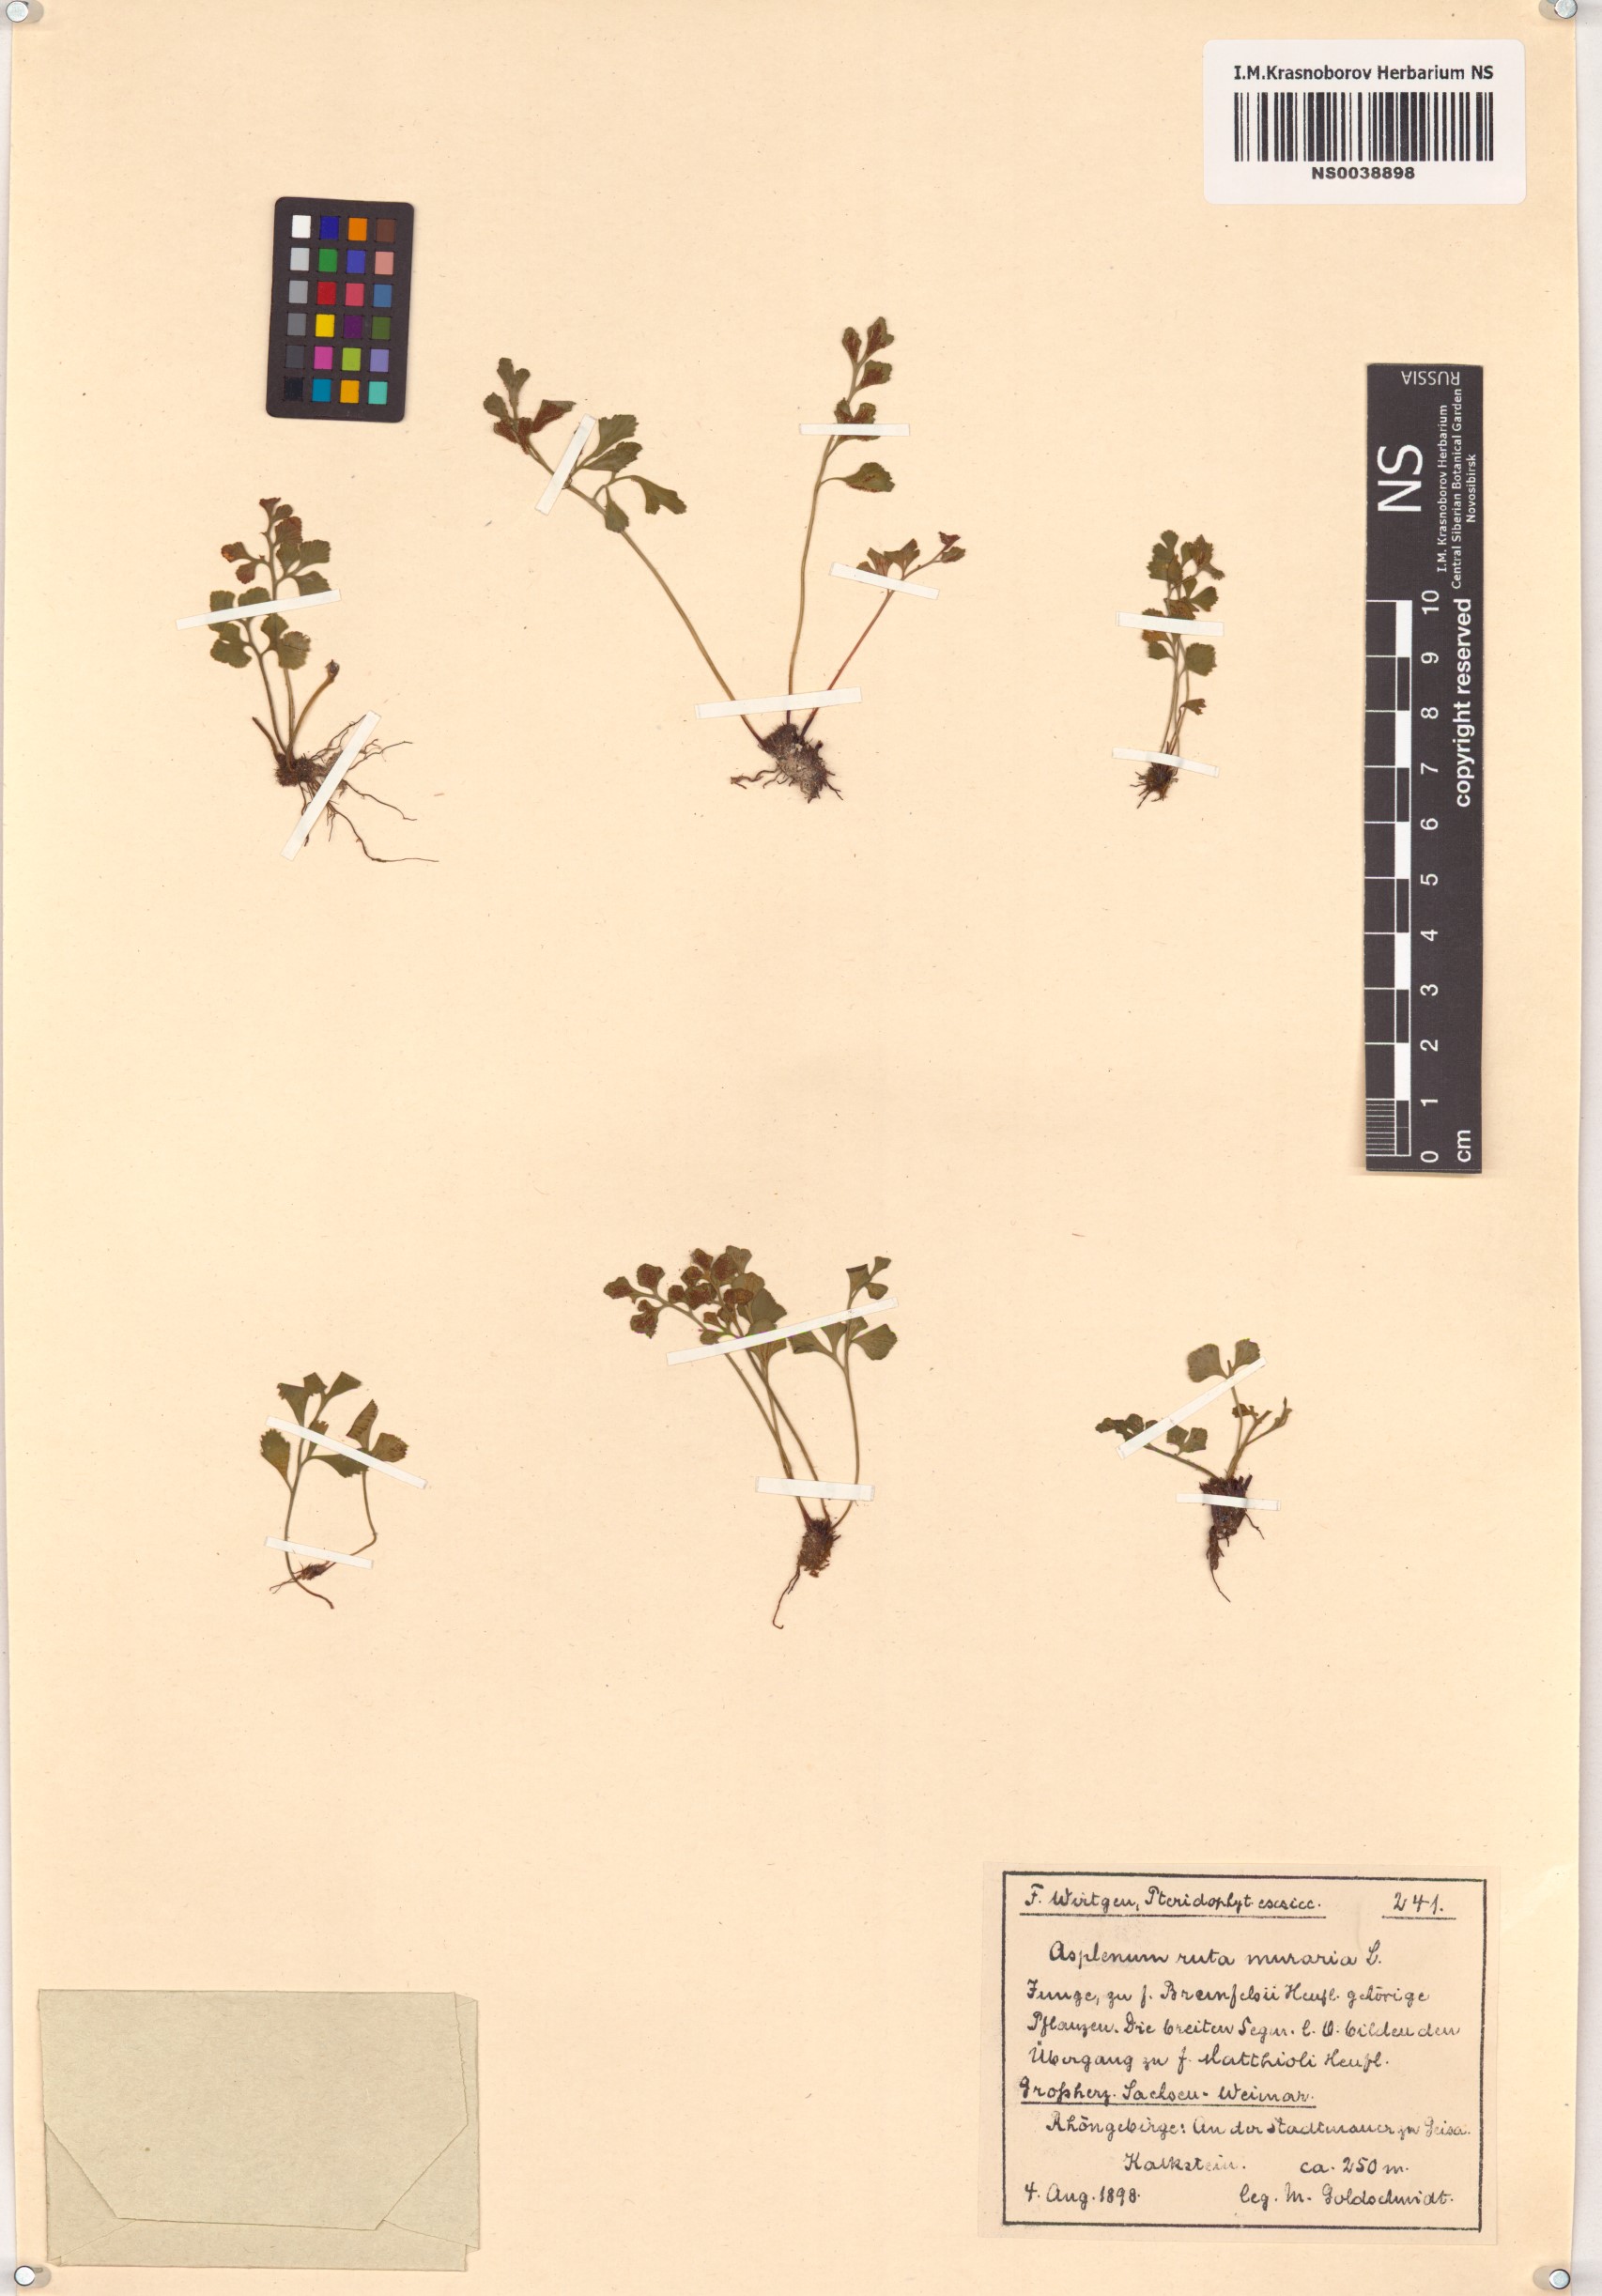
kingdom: Plantae
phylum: Tracheophyta
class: Polypodiopsida
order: Polypodiales
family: Aspleniaceae
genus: Asplenium
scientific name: Asplenium ruta-muraria
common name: Wall-rue
